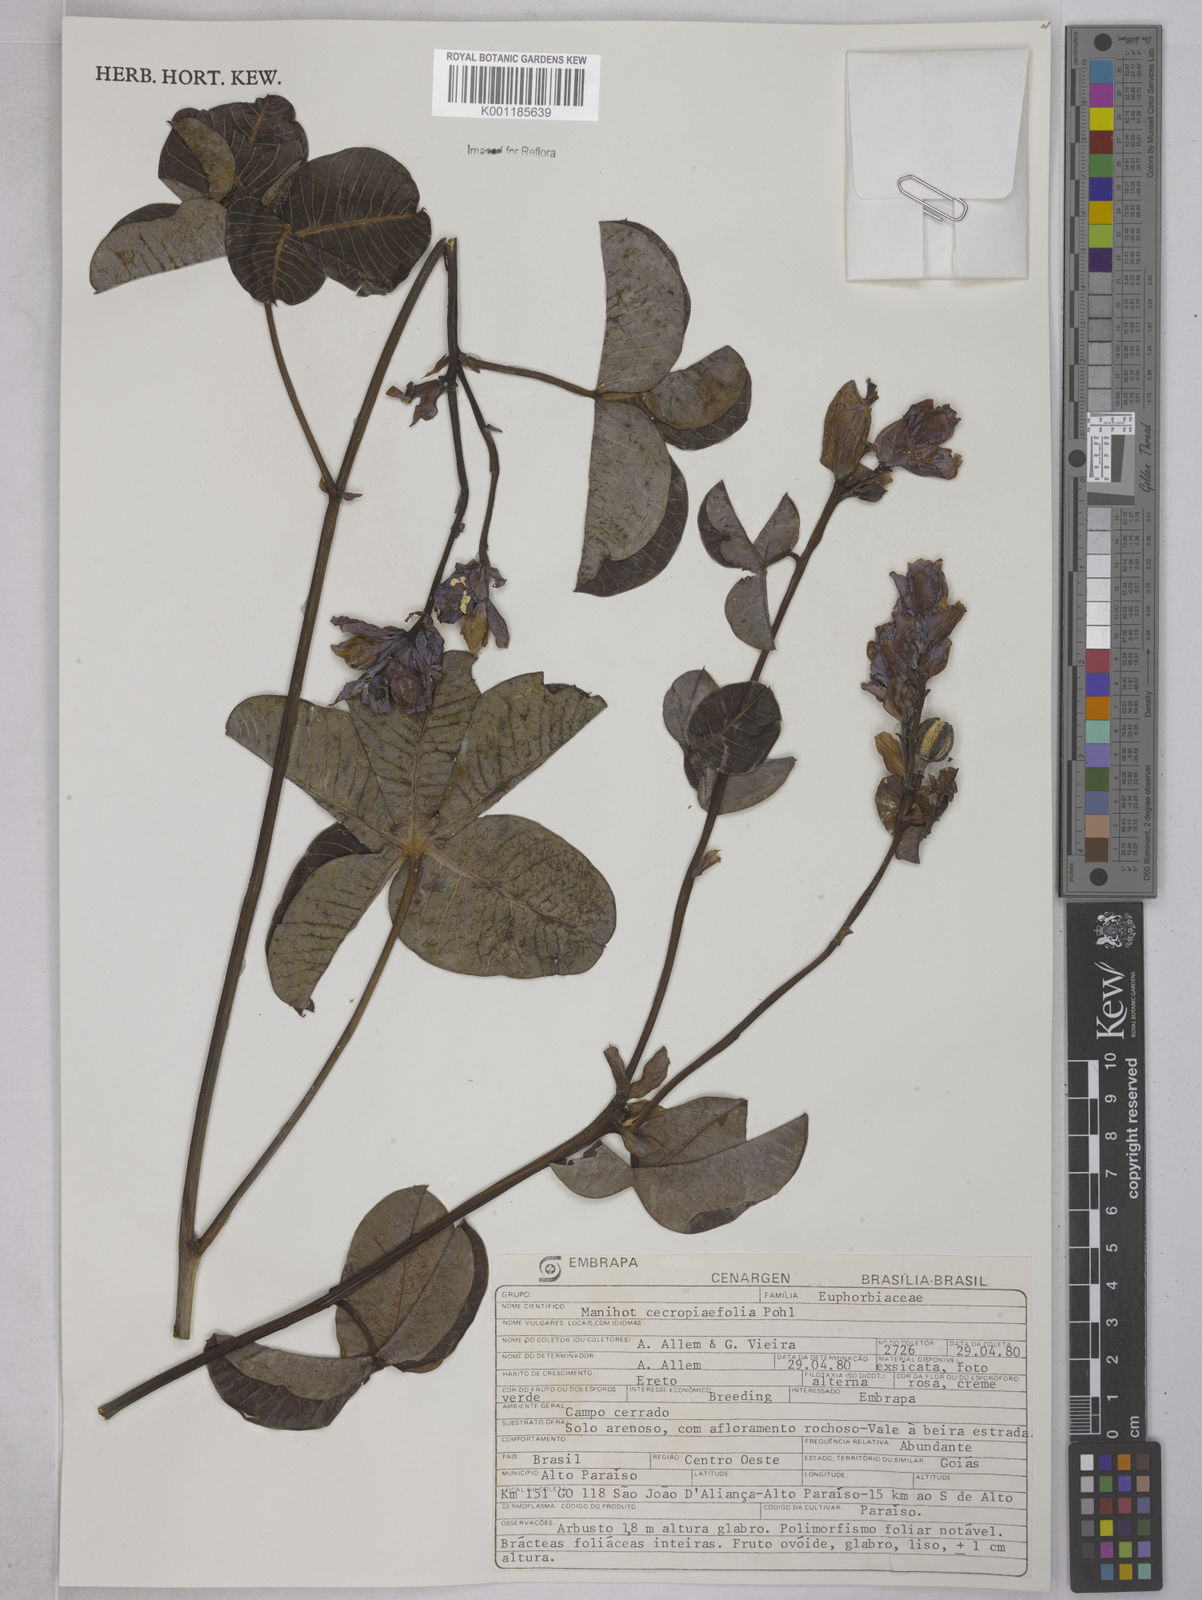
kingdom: Plantae
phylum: Tracheophyta
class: Magnoliopsida
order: Malpighiales
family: Euphorbiaceae
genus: Manihot
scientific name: Manihot cecropiifolia
